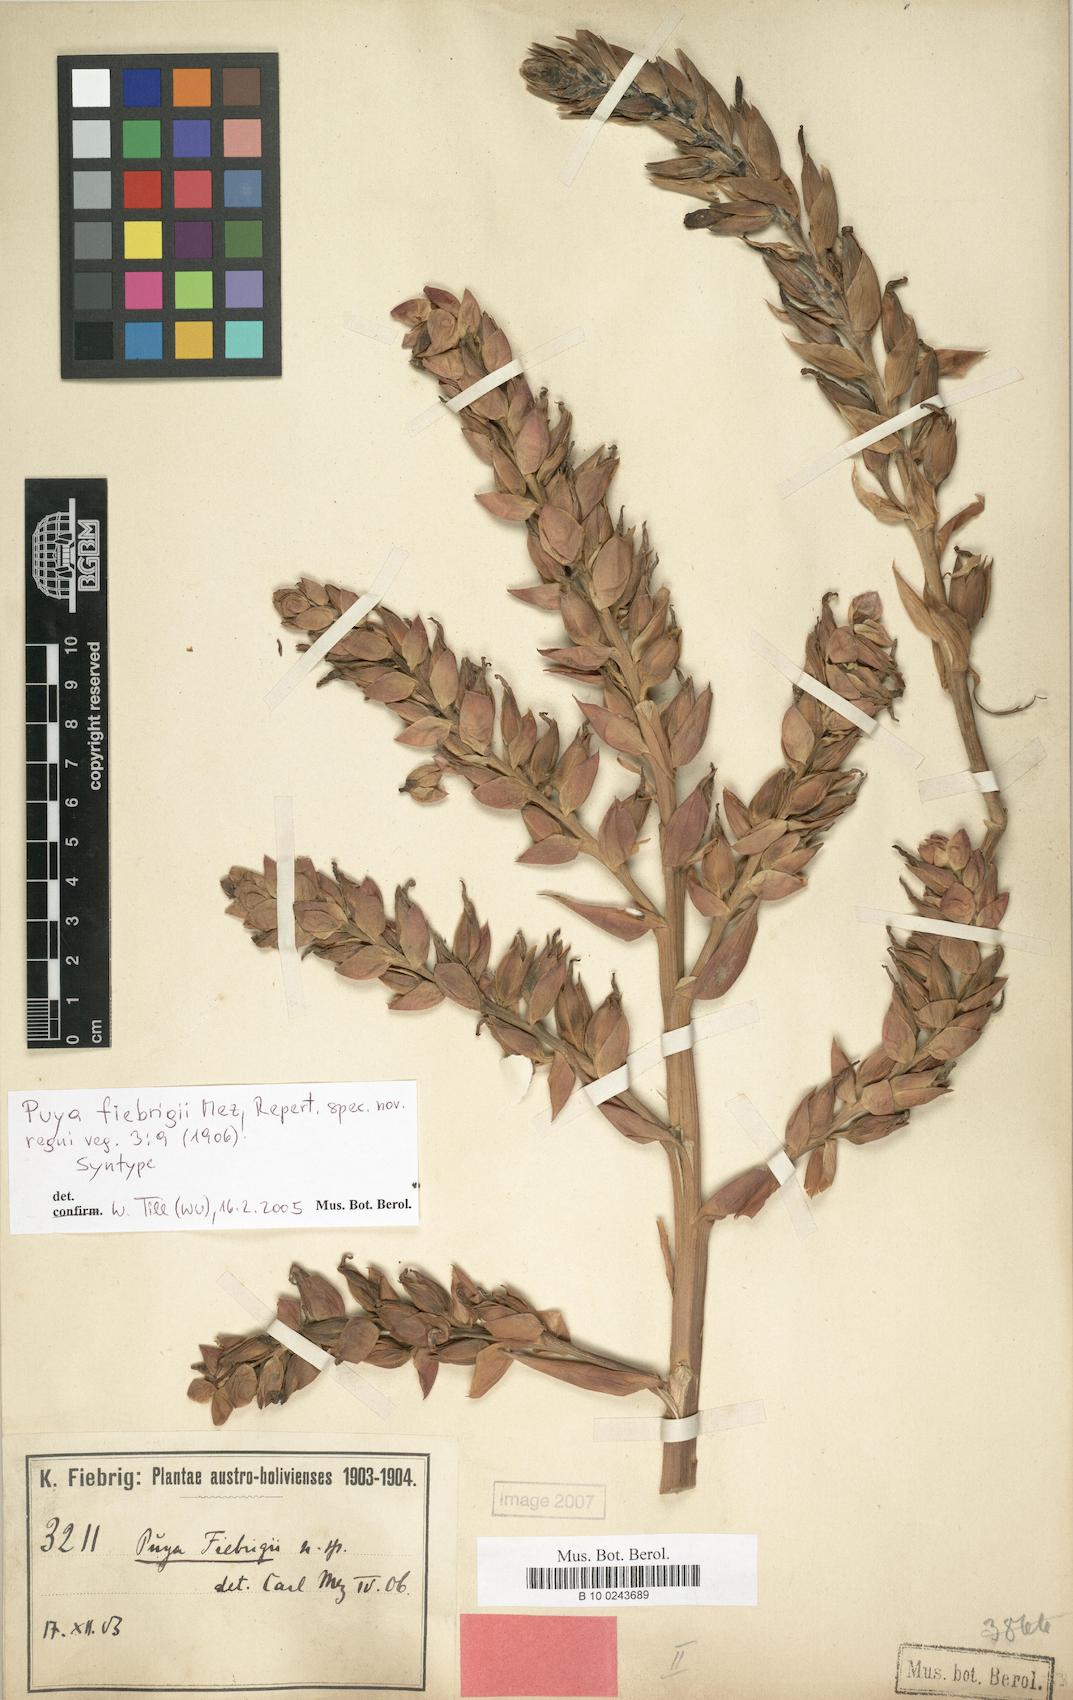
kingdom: Plantae
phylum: Tracheophyta
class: Liliopsida
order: Poales
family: Bromeliaceae
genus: Puya
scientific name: Puya fiebrigii
